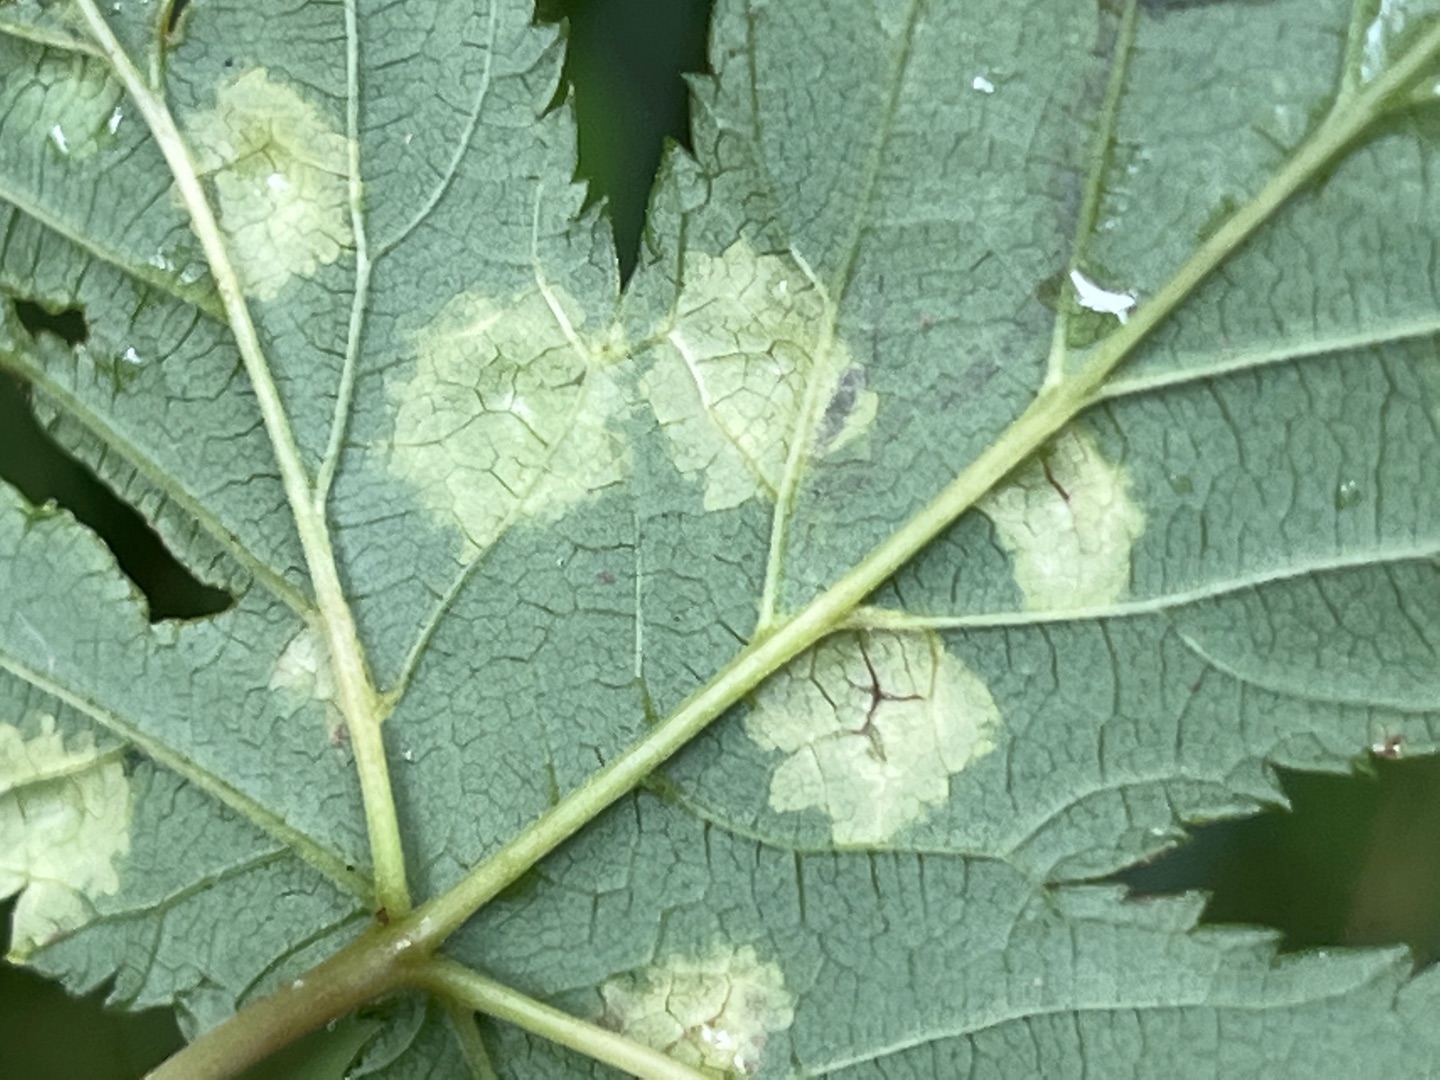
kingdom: Animalia
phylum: Arthropoda
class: Insecta
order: Diptera
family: Cecidomyiidae
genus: Dasineura
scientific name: Dasineura pustulans
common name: Mjødurtblistgalmyg
